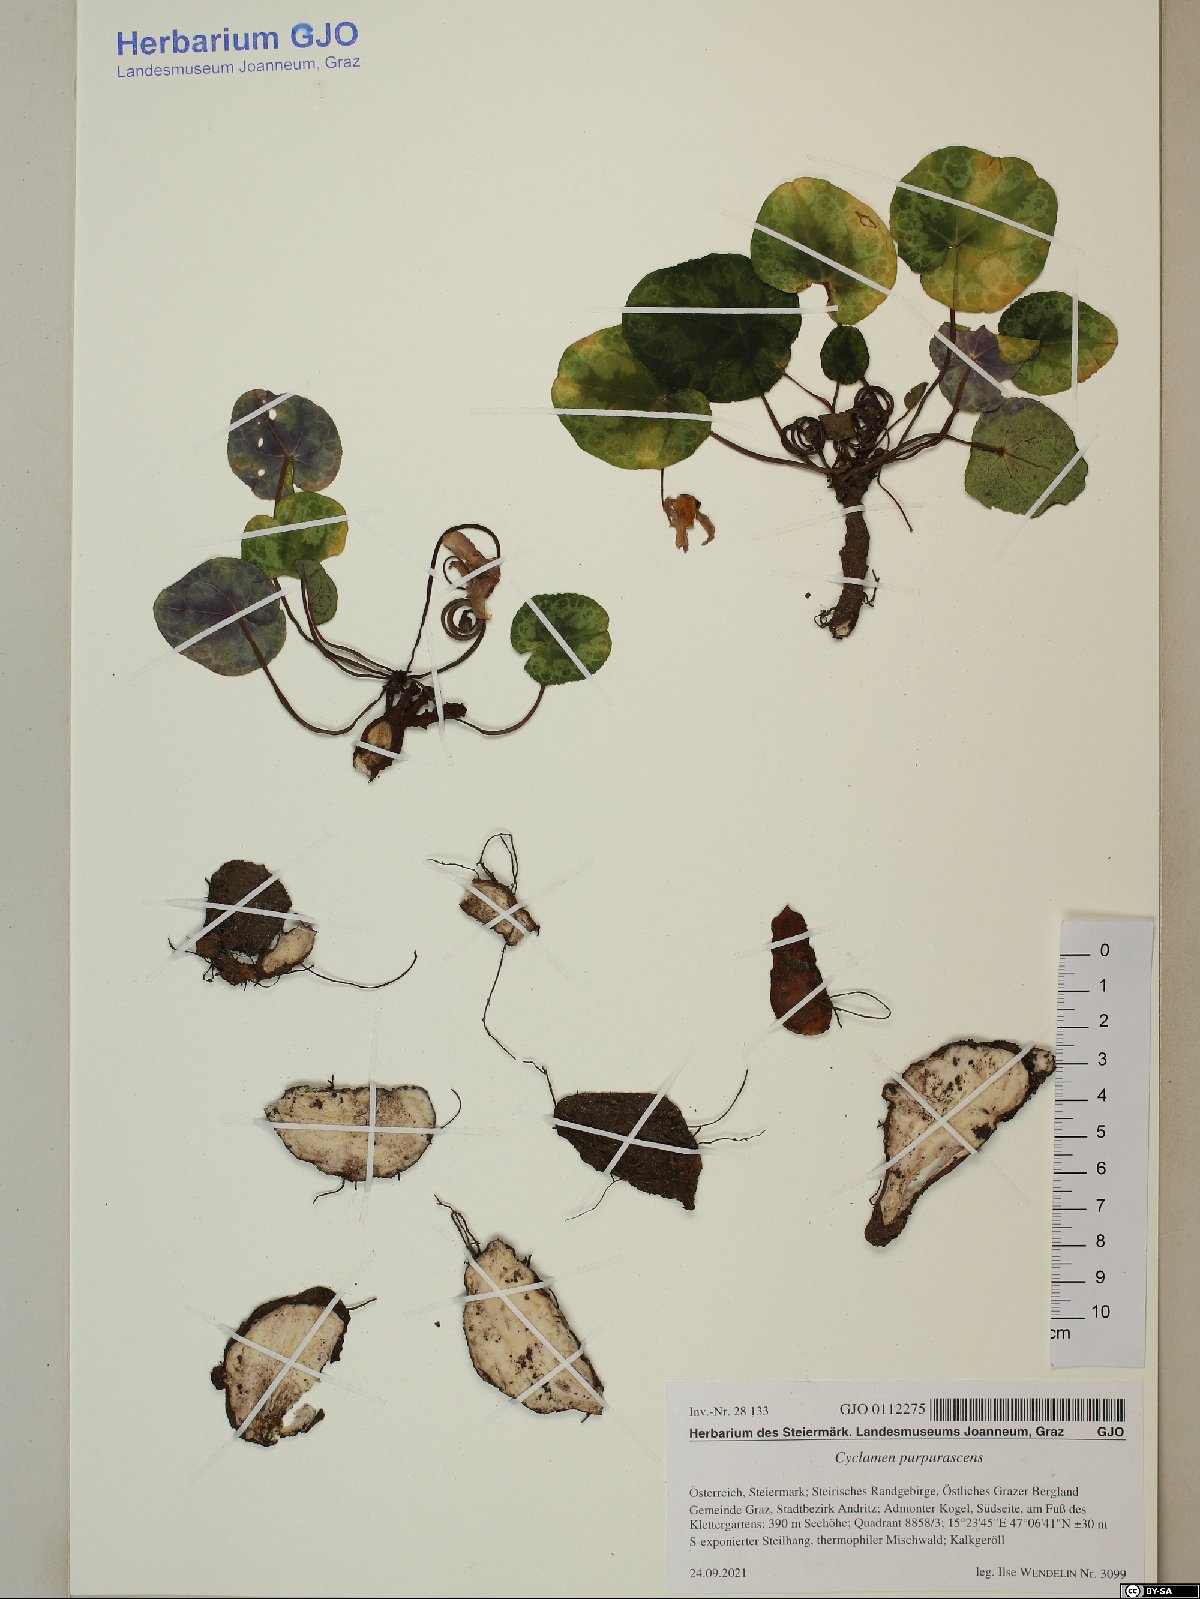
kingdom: Plantae
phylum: Tracheophyta
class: Magnoliopsida
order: Ericales
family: Primulaceae
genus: Cyclamen
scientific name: Cyclamen purpurascens
